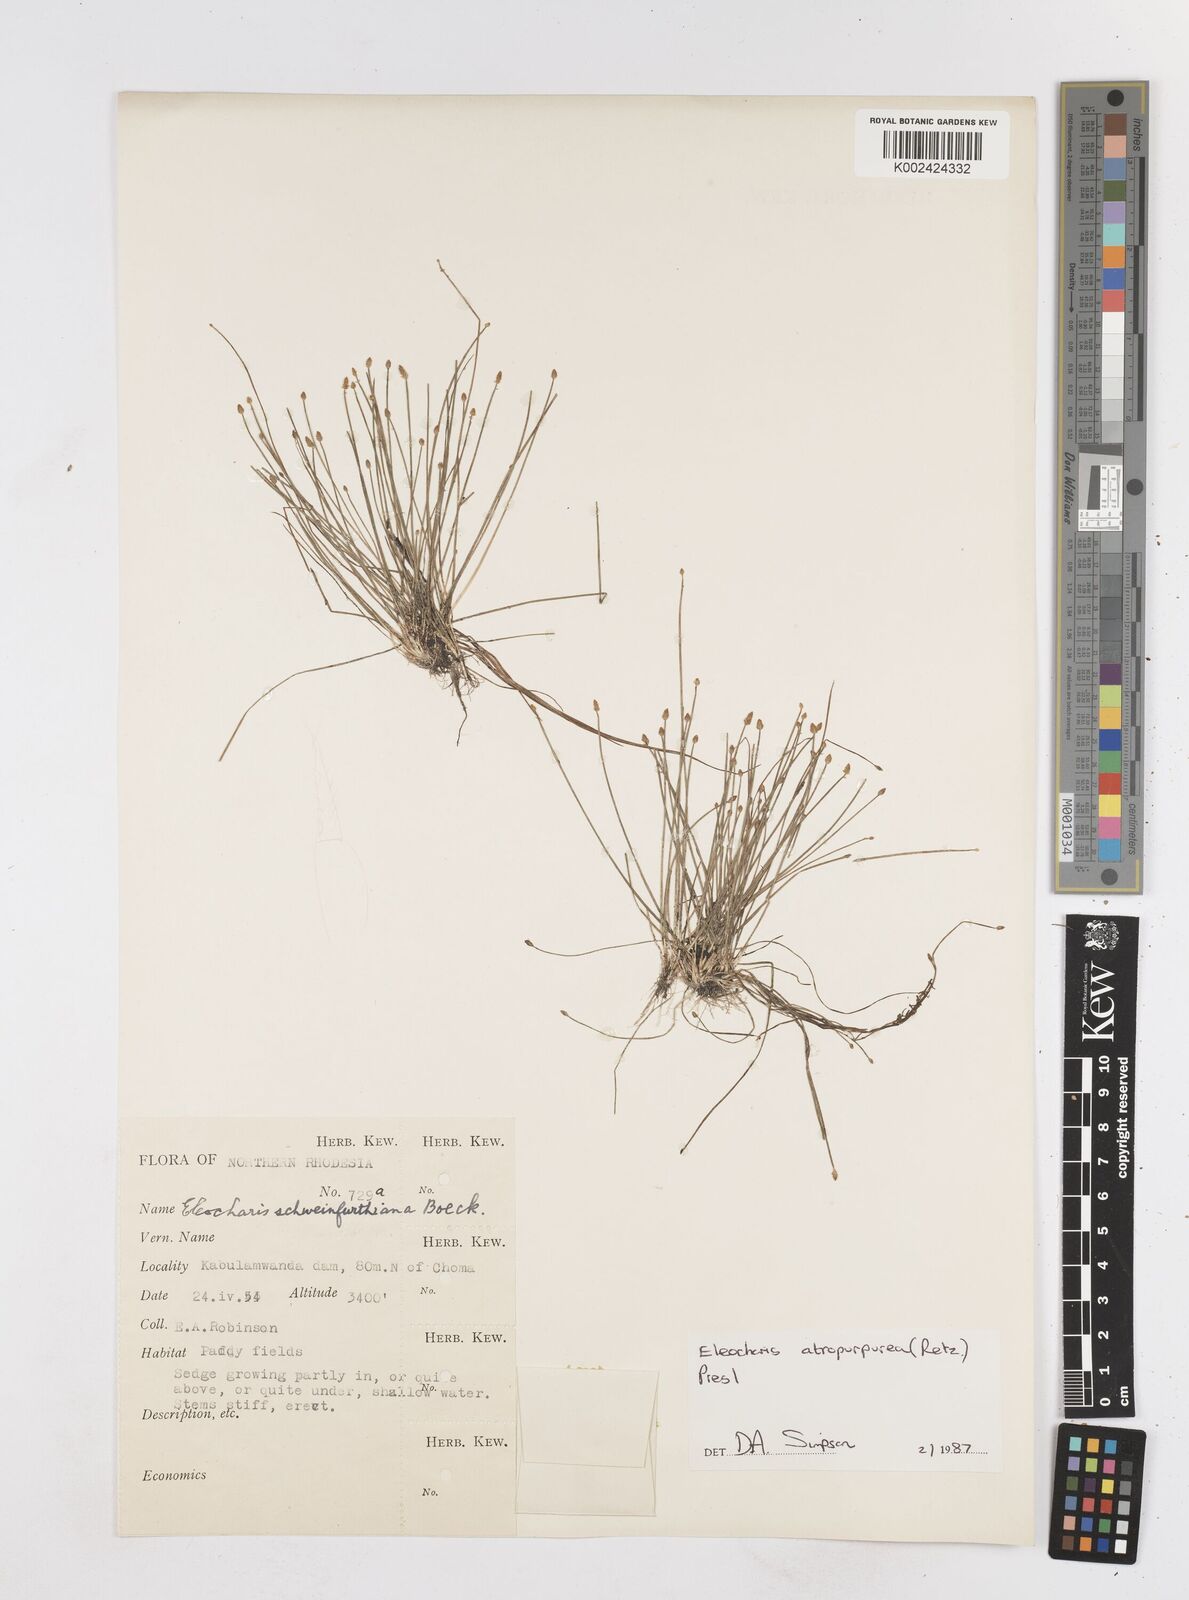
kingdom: Plantae
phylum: Tracheophyta
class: Liliopsida
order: Poales
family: Cyperaceae
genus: Eleocharis
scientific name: Eleocharis atropurpurea
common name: Purple spikerush
